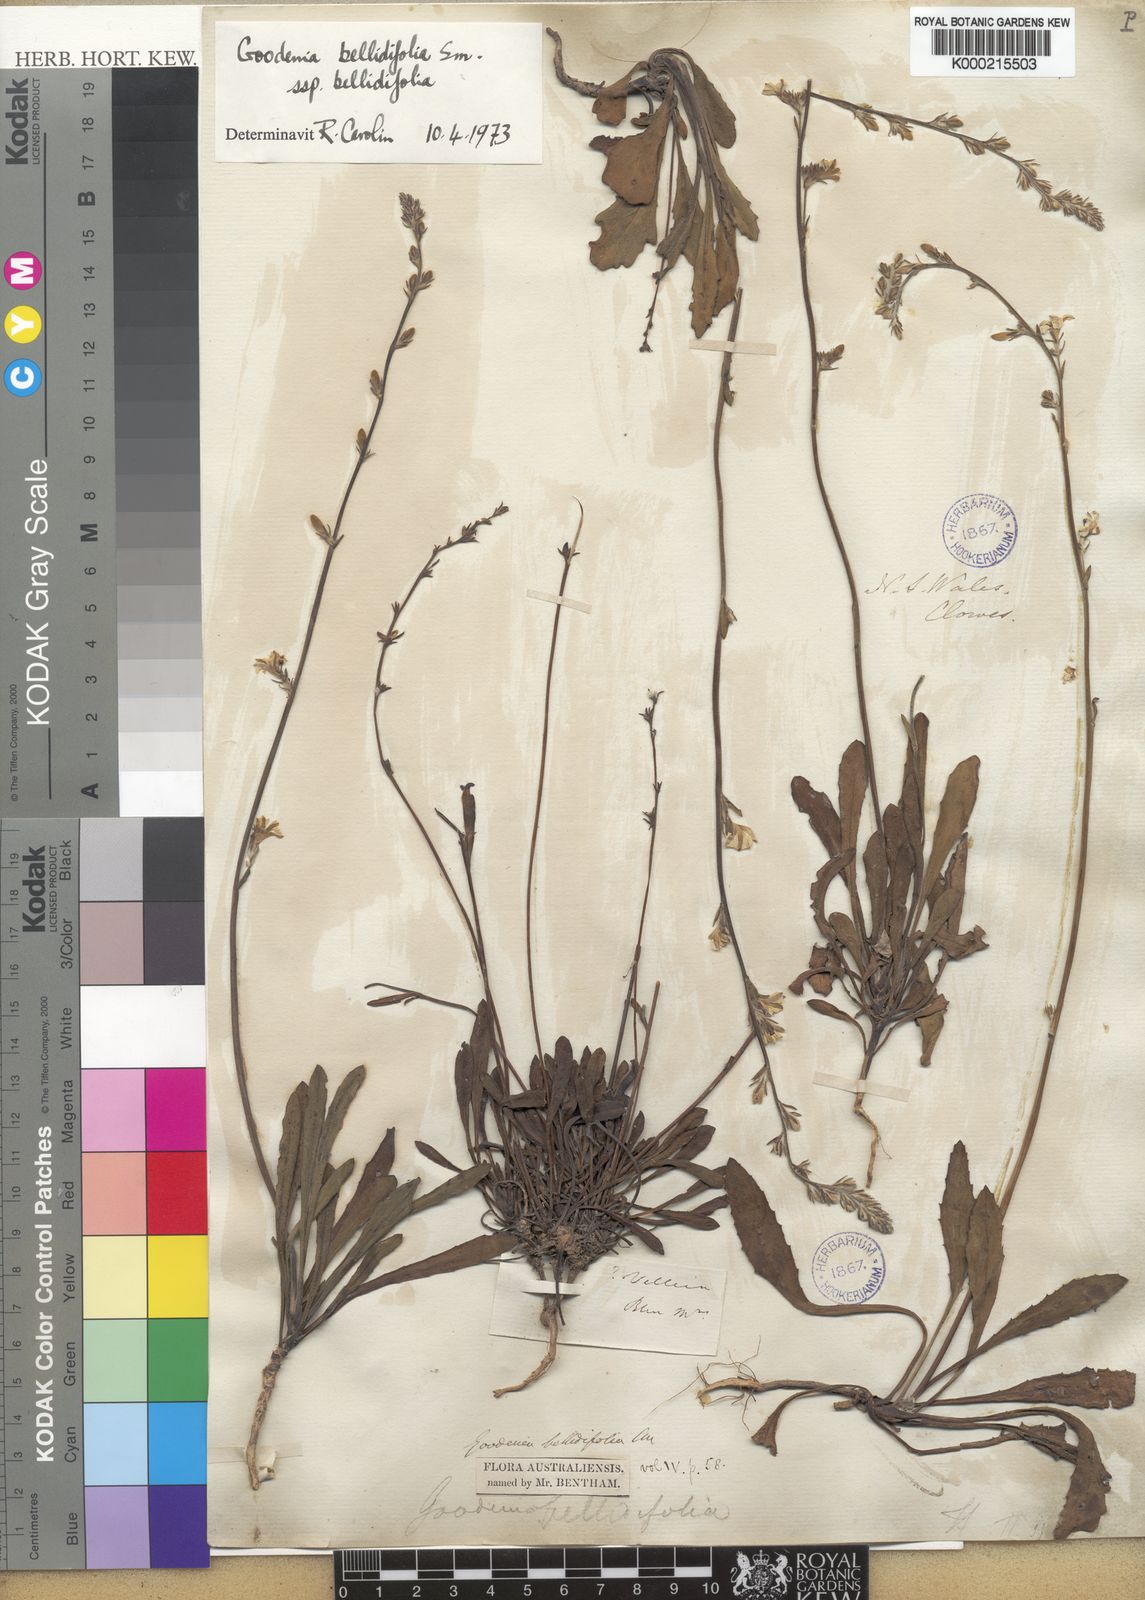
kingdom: Plantae
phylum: Tracheophyta
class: Magnoliopsida
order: Asterales
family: Goodeniaceae
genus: Goodenia
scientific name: Goodenia
